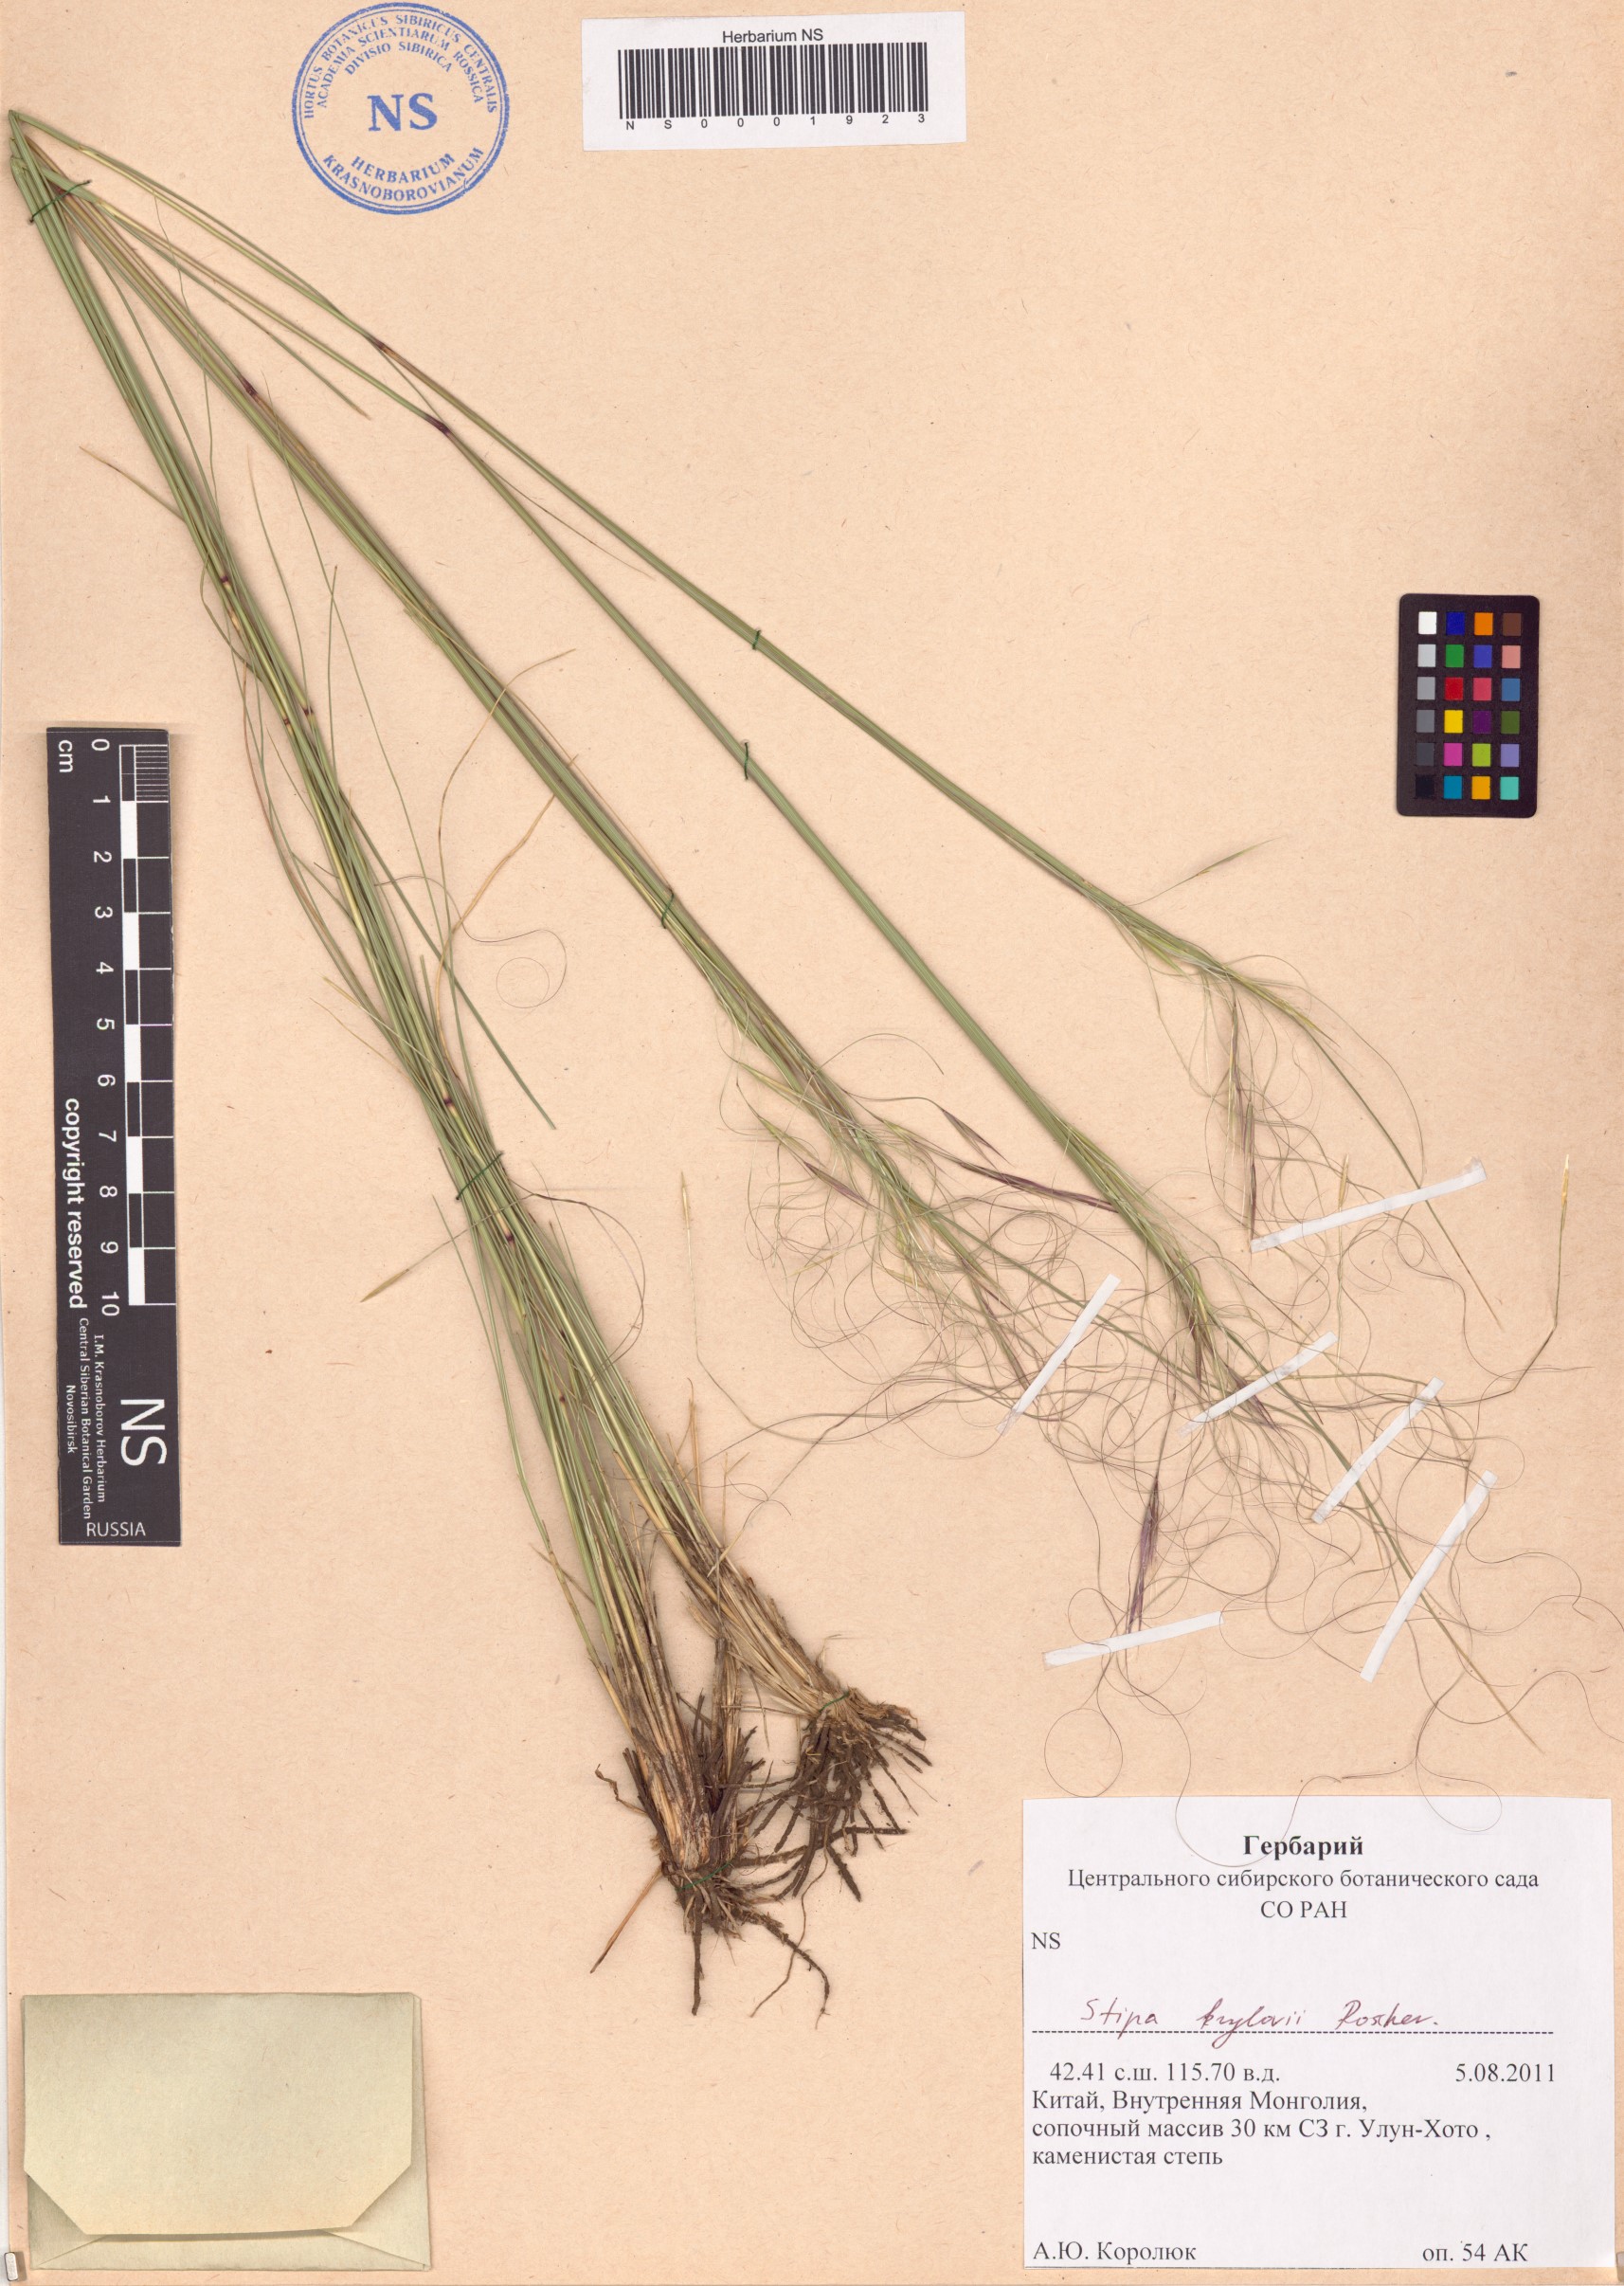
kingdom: Plantae
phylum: Tracheophyta
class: Liliopsida
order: Poales
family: Poaceae
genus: Stipa
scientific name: Stipa krylovii
